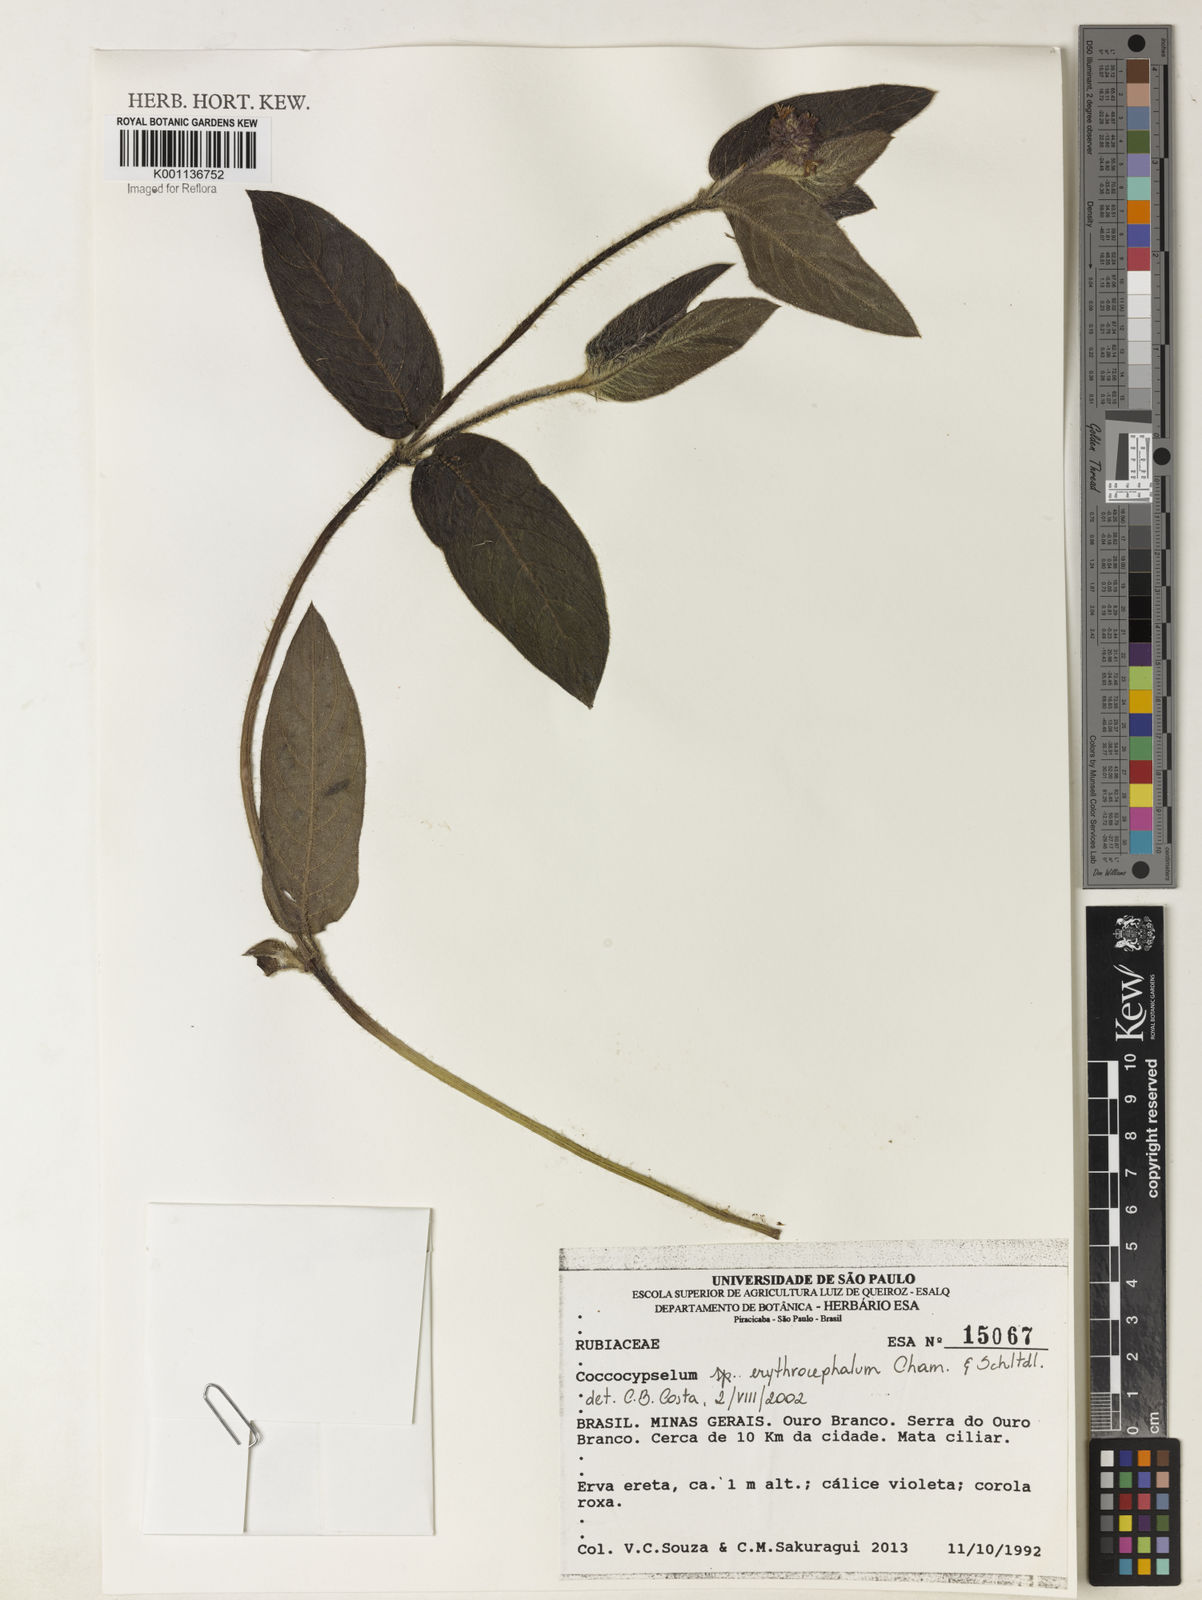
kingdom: Plantae
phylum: Tracheophyta
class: Magnoliopsida
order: Gentianales
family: Rubiaceae
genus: Coccocypselum
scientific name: Coccocypselum
